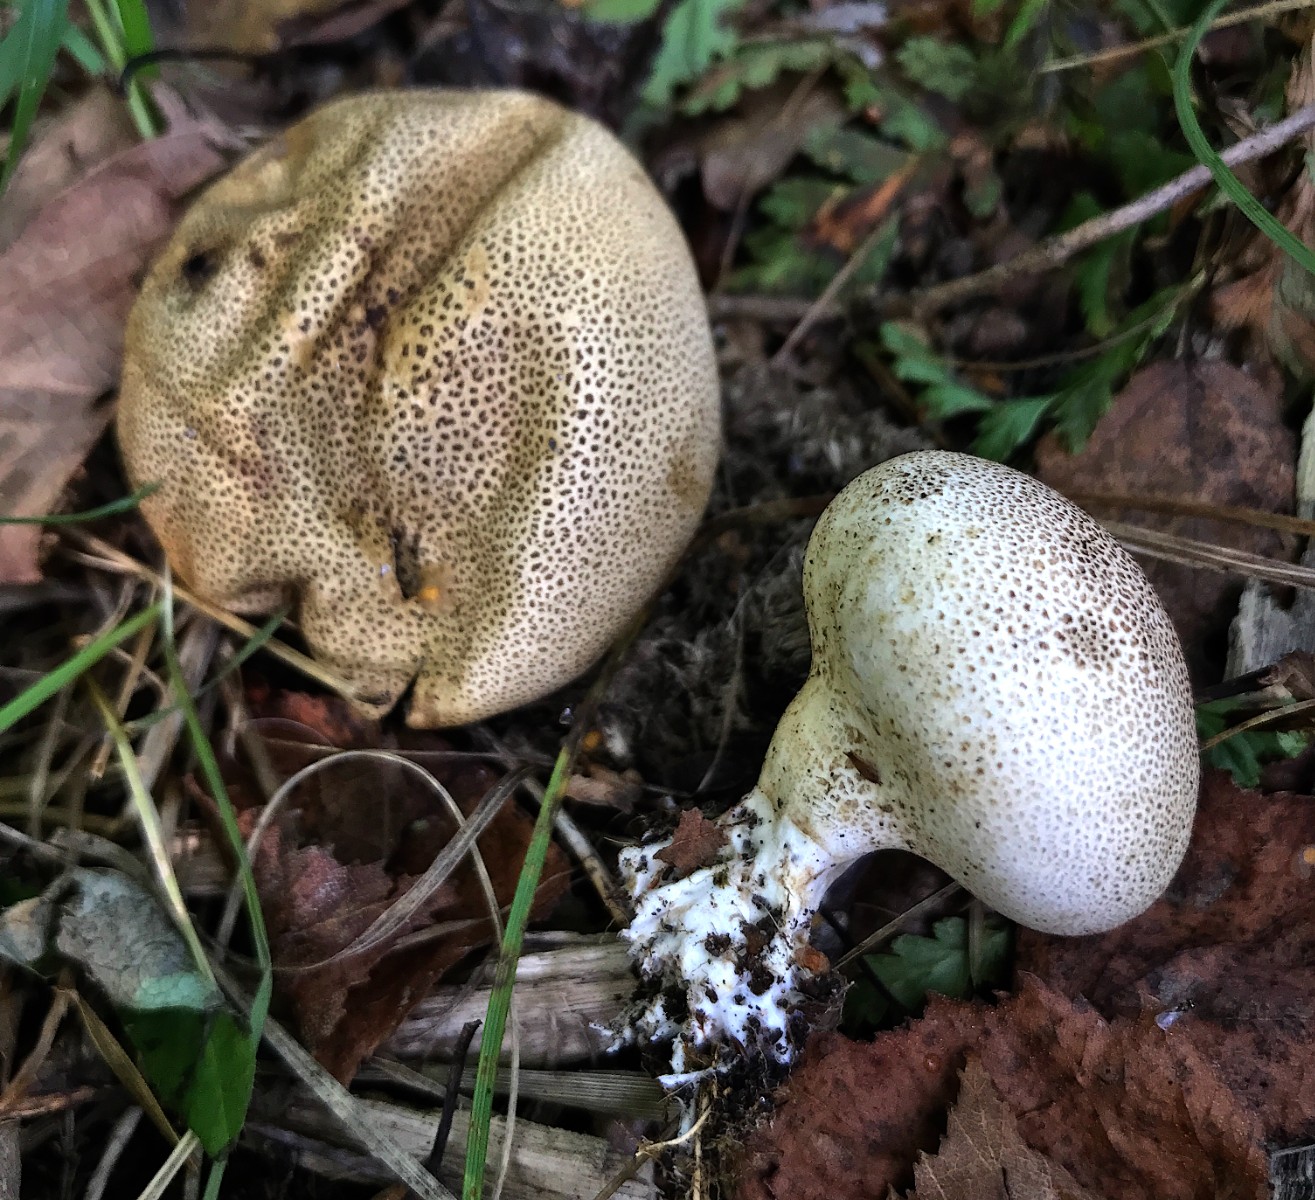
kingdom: Fungi
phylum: Basidiomycota
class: Agaricomycetes
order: Boletales
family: Sclerodermataceae
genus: Scleroderma
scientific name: Scleroderma verrucosum
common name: stilket bruskbold
